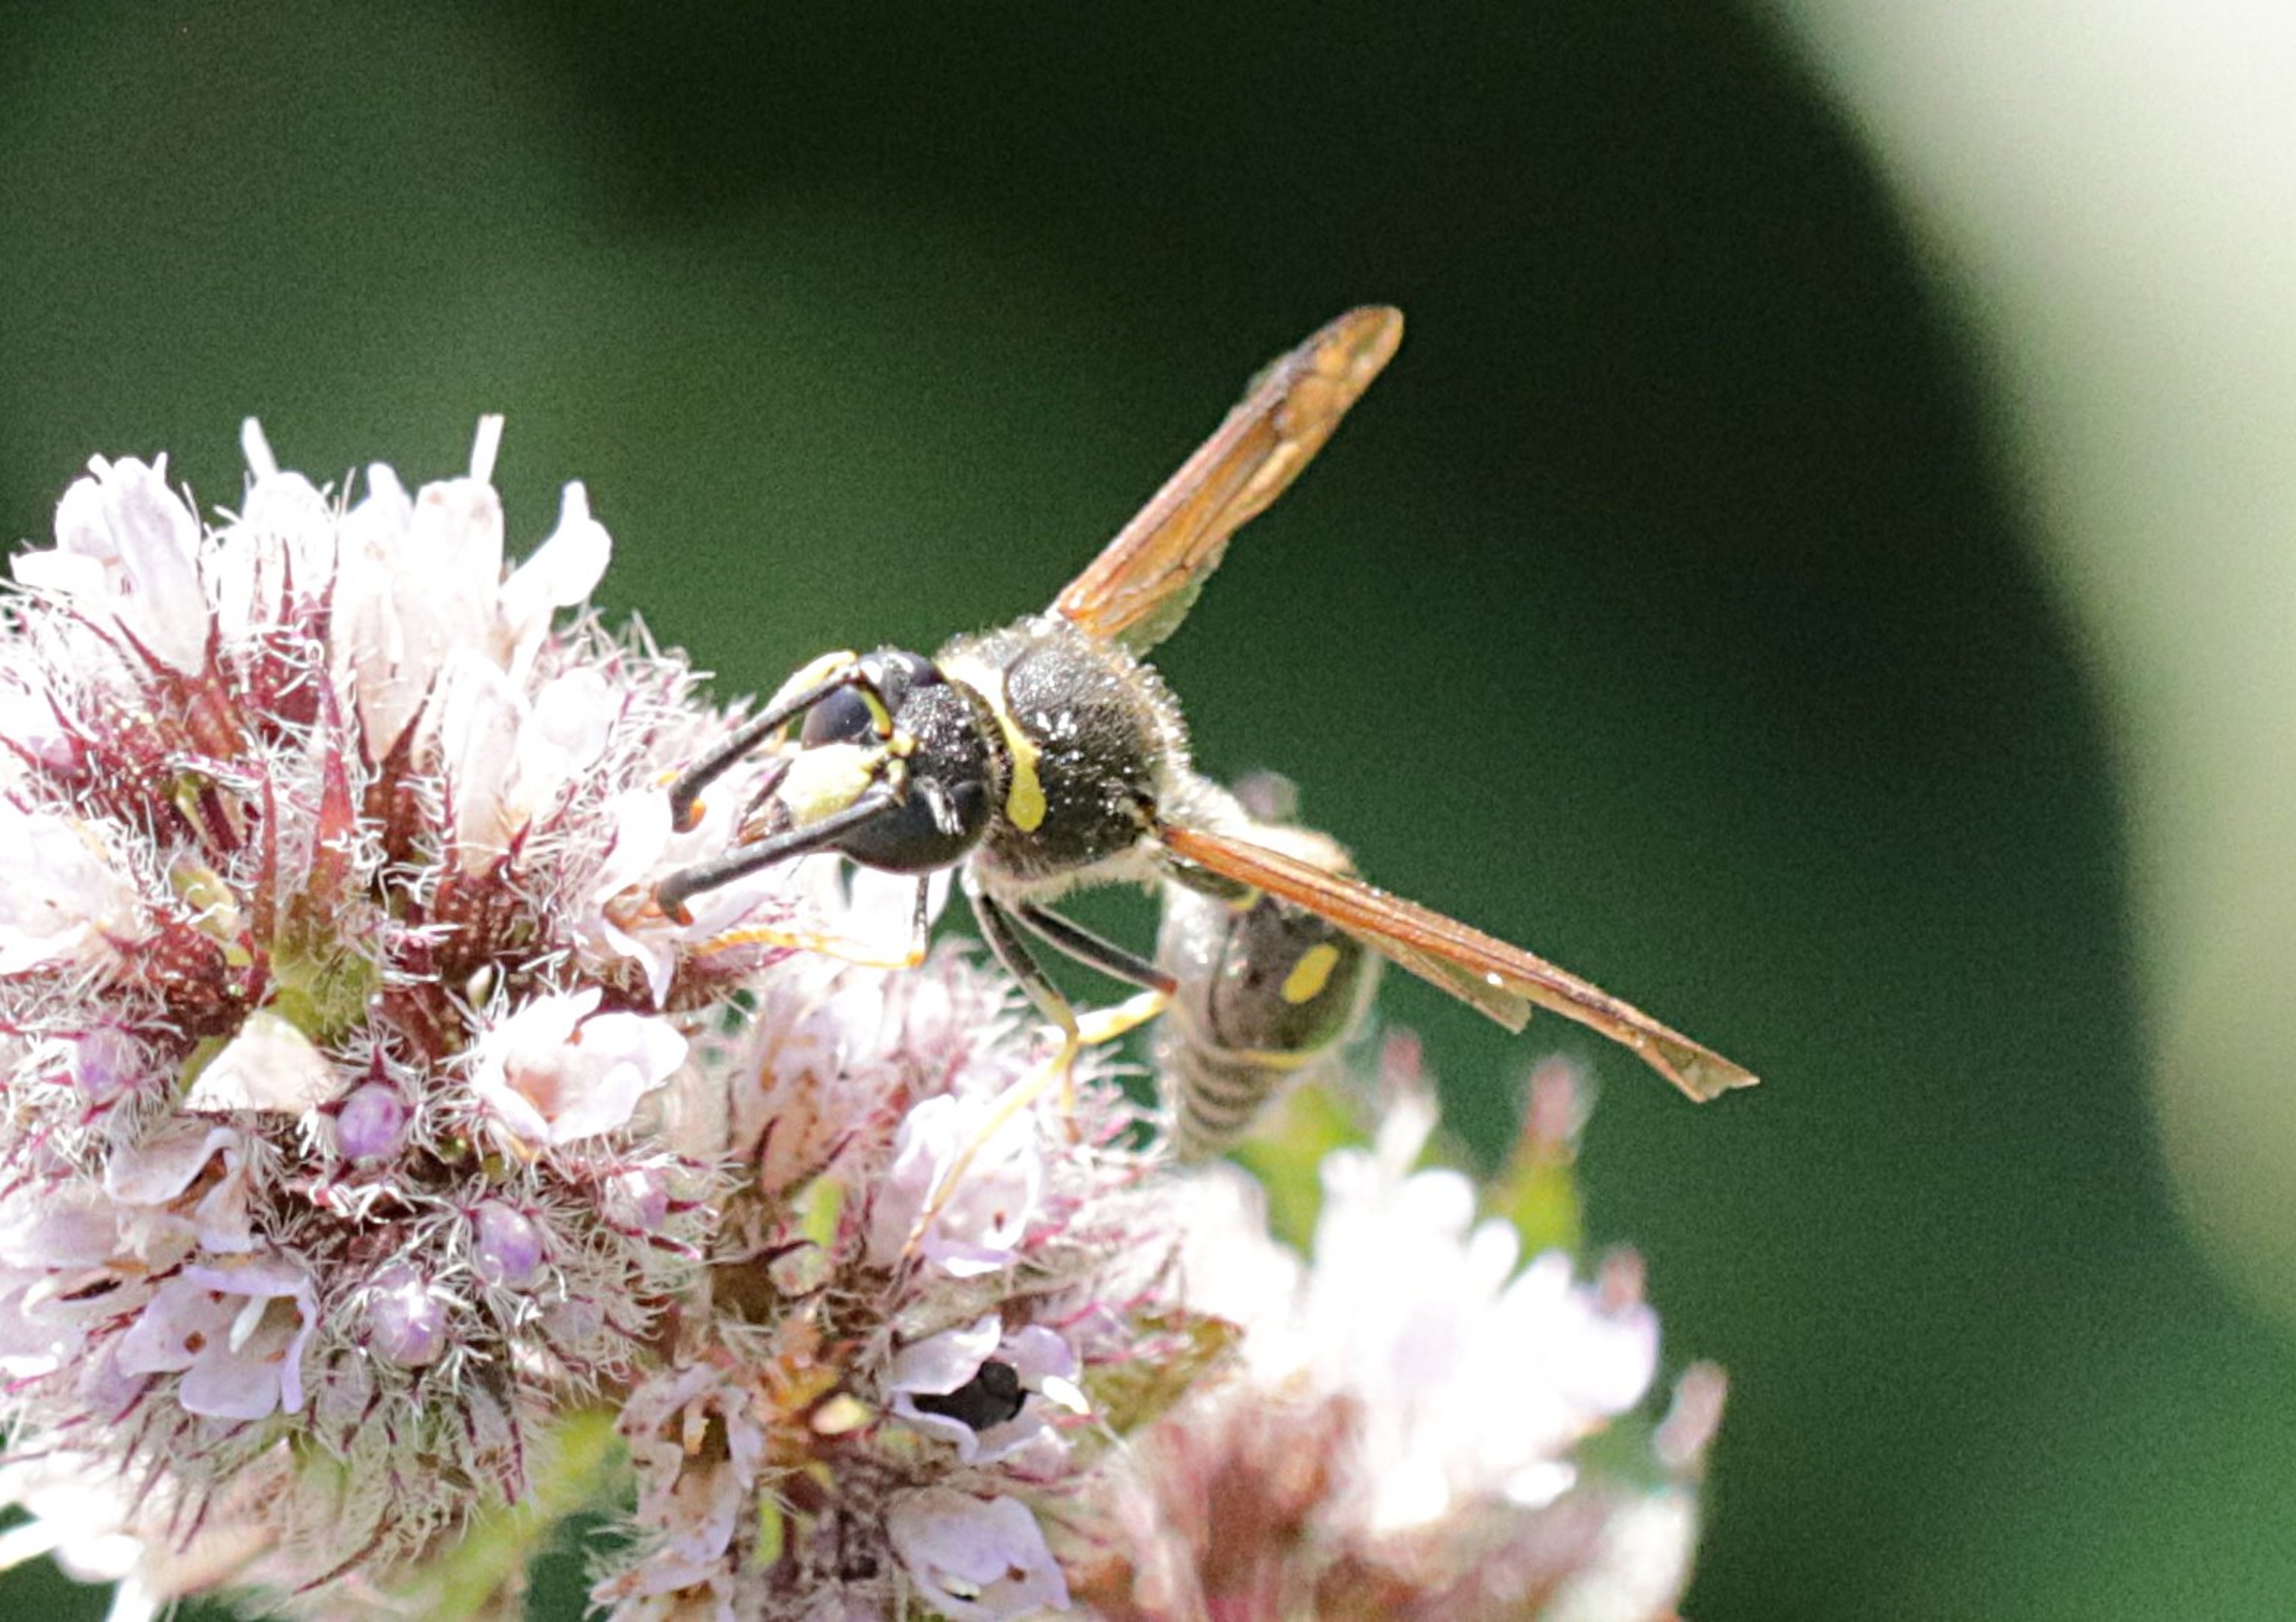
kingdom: Animalia
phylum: Arthropoda
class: Insecta
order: Hymenoptera
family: Vespidae
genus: Eumenes
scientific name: Eumenes
